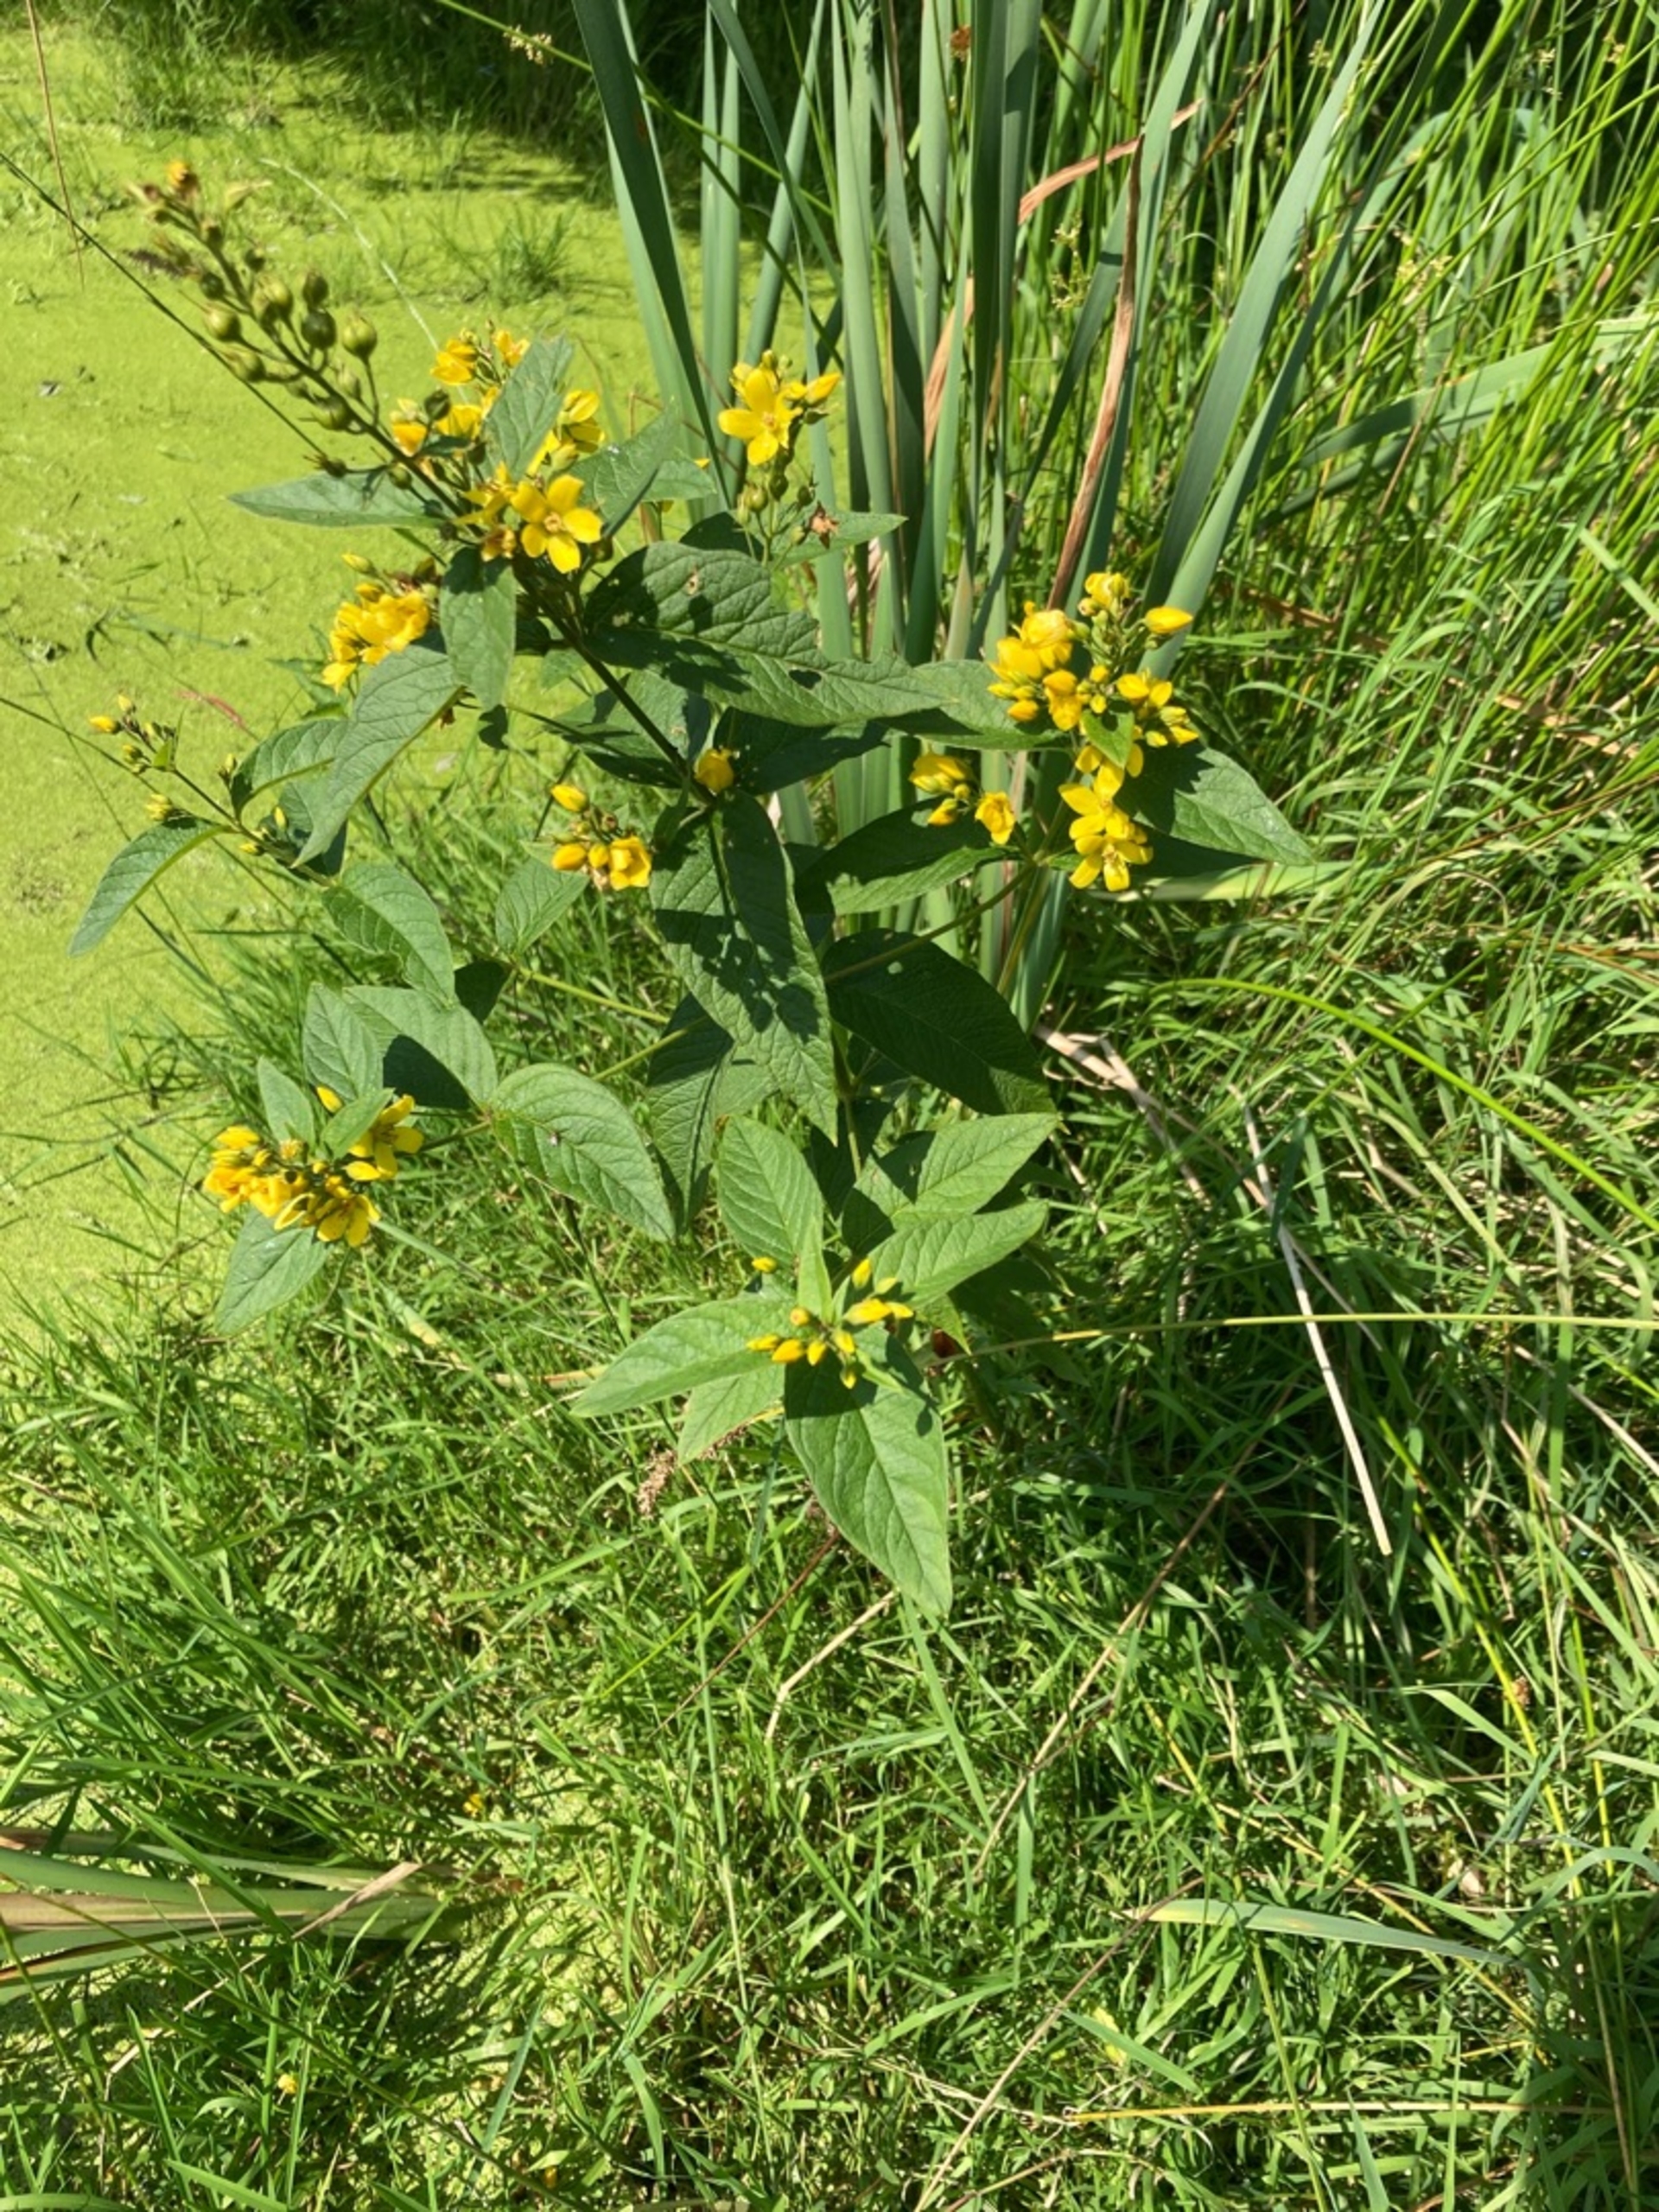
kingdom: Plantae
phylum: Tracheophyta
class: Magnoliopsida
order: Ericales
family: Primulaceae
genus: Lysimachia
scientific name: Lysimachia vulgaris
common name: Almindelig fredløs
